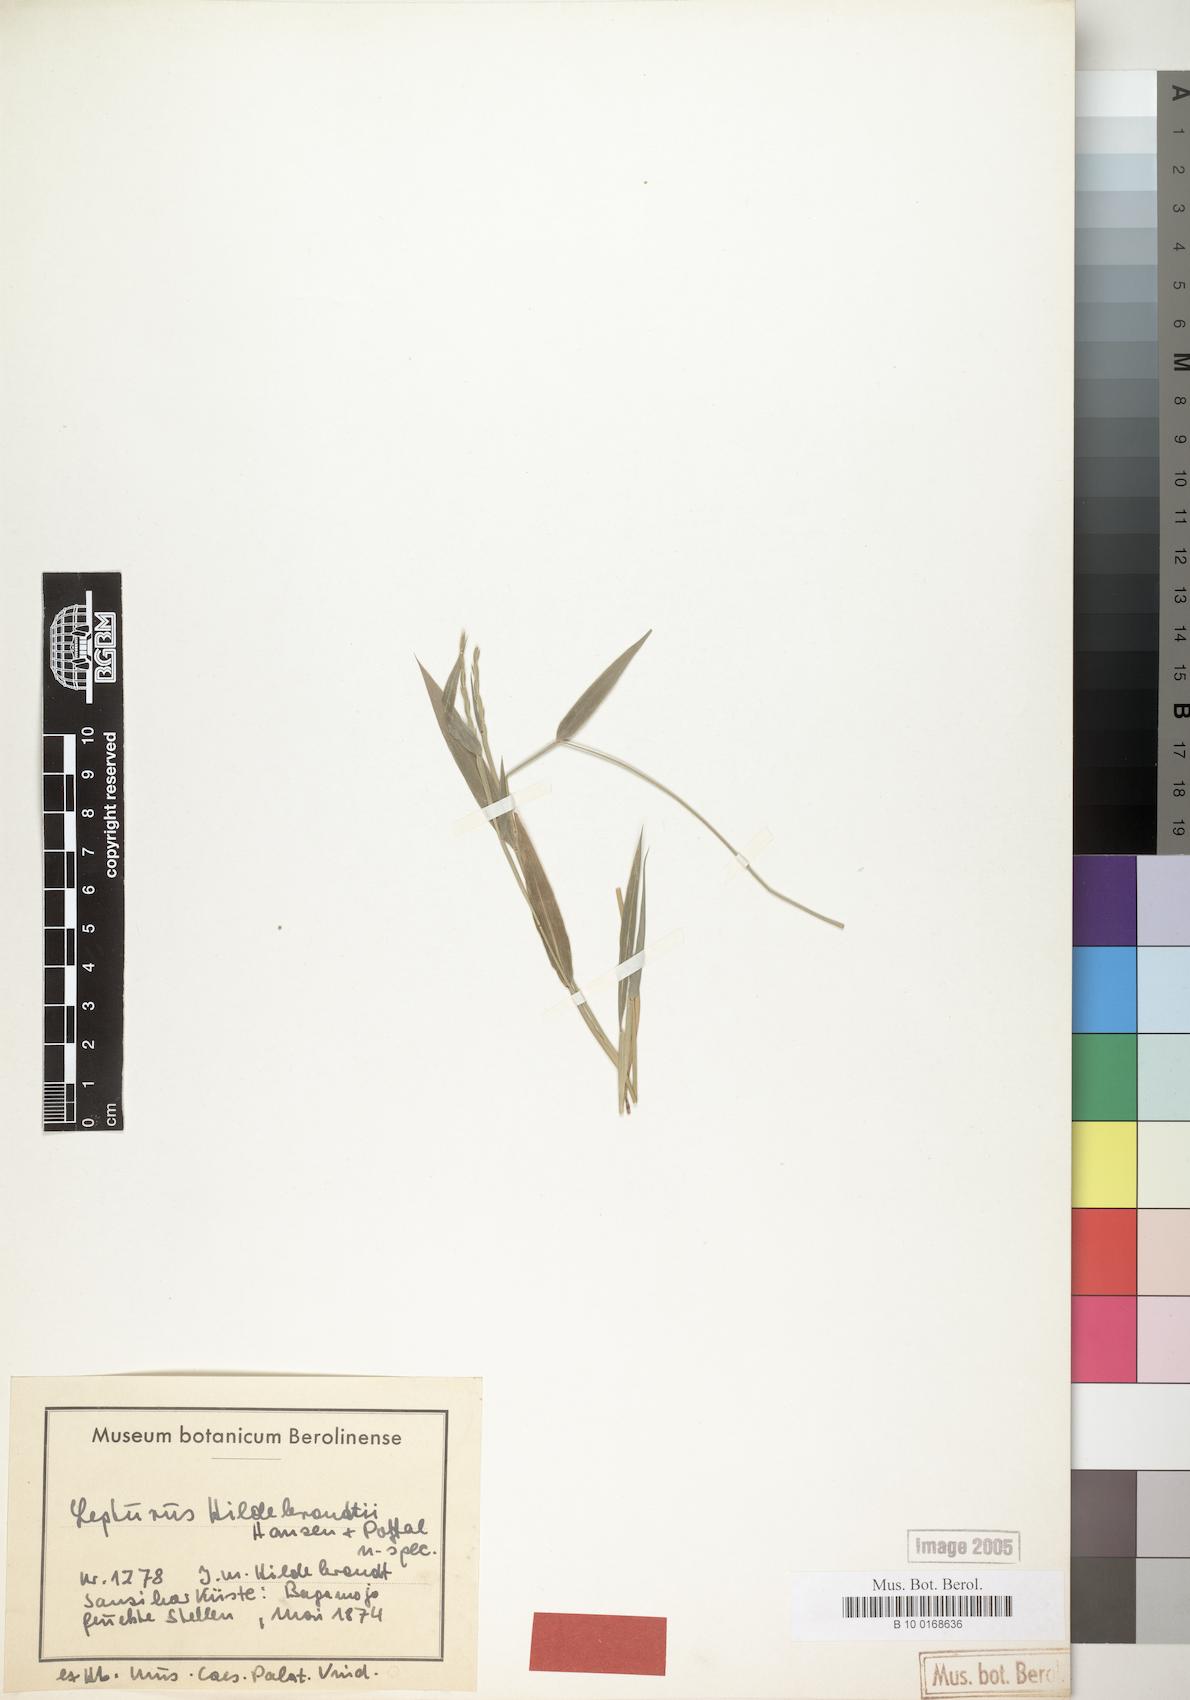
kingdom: Plantae
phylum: Tracheophyta
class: Liliopsida
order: Poales
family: Poaceae
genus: Lepturus
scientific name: Lepturus radicans
